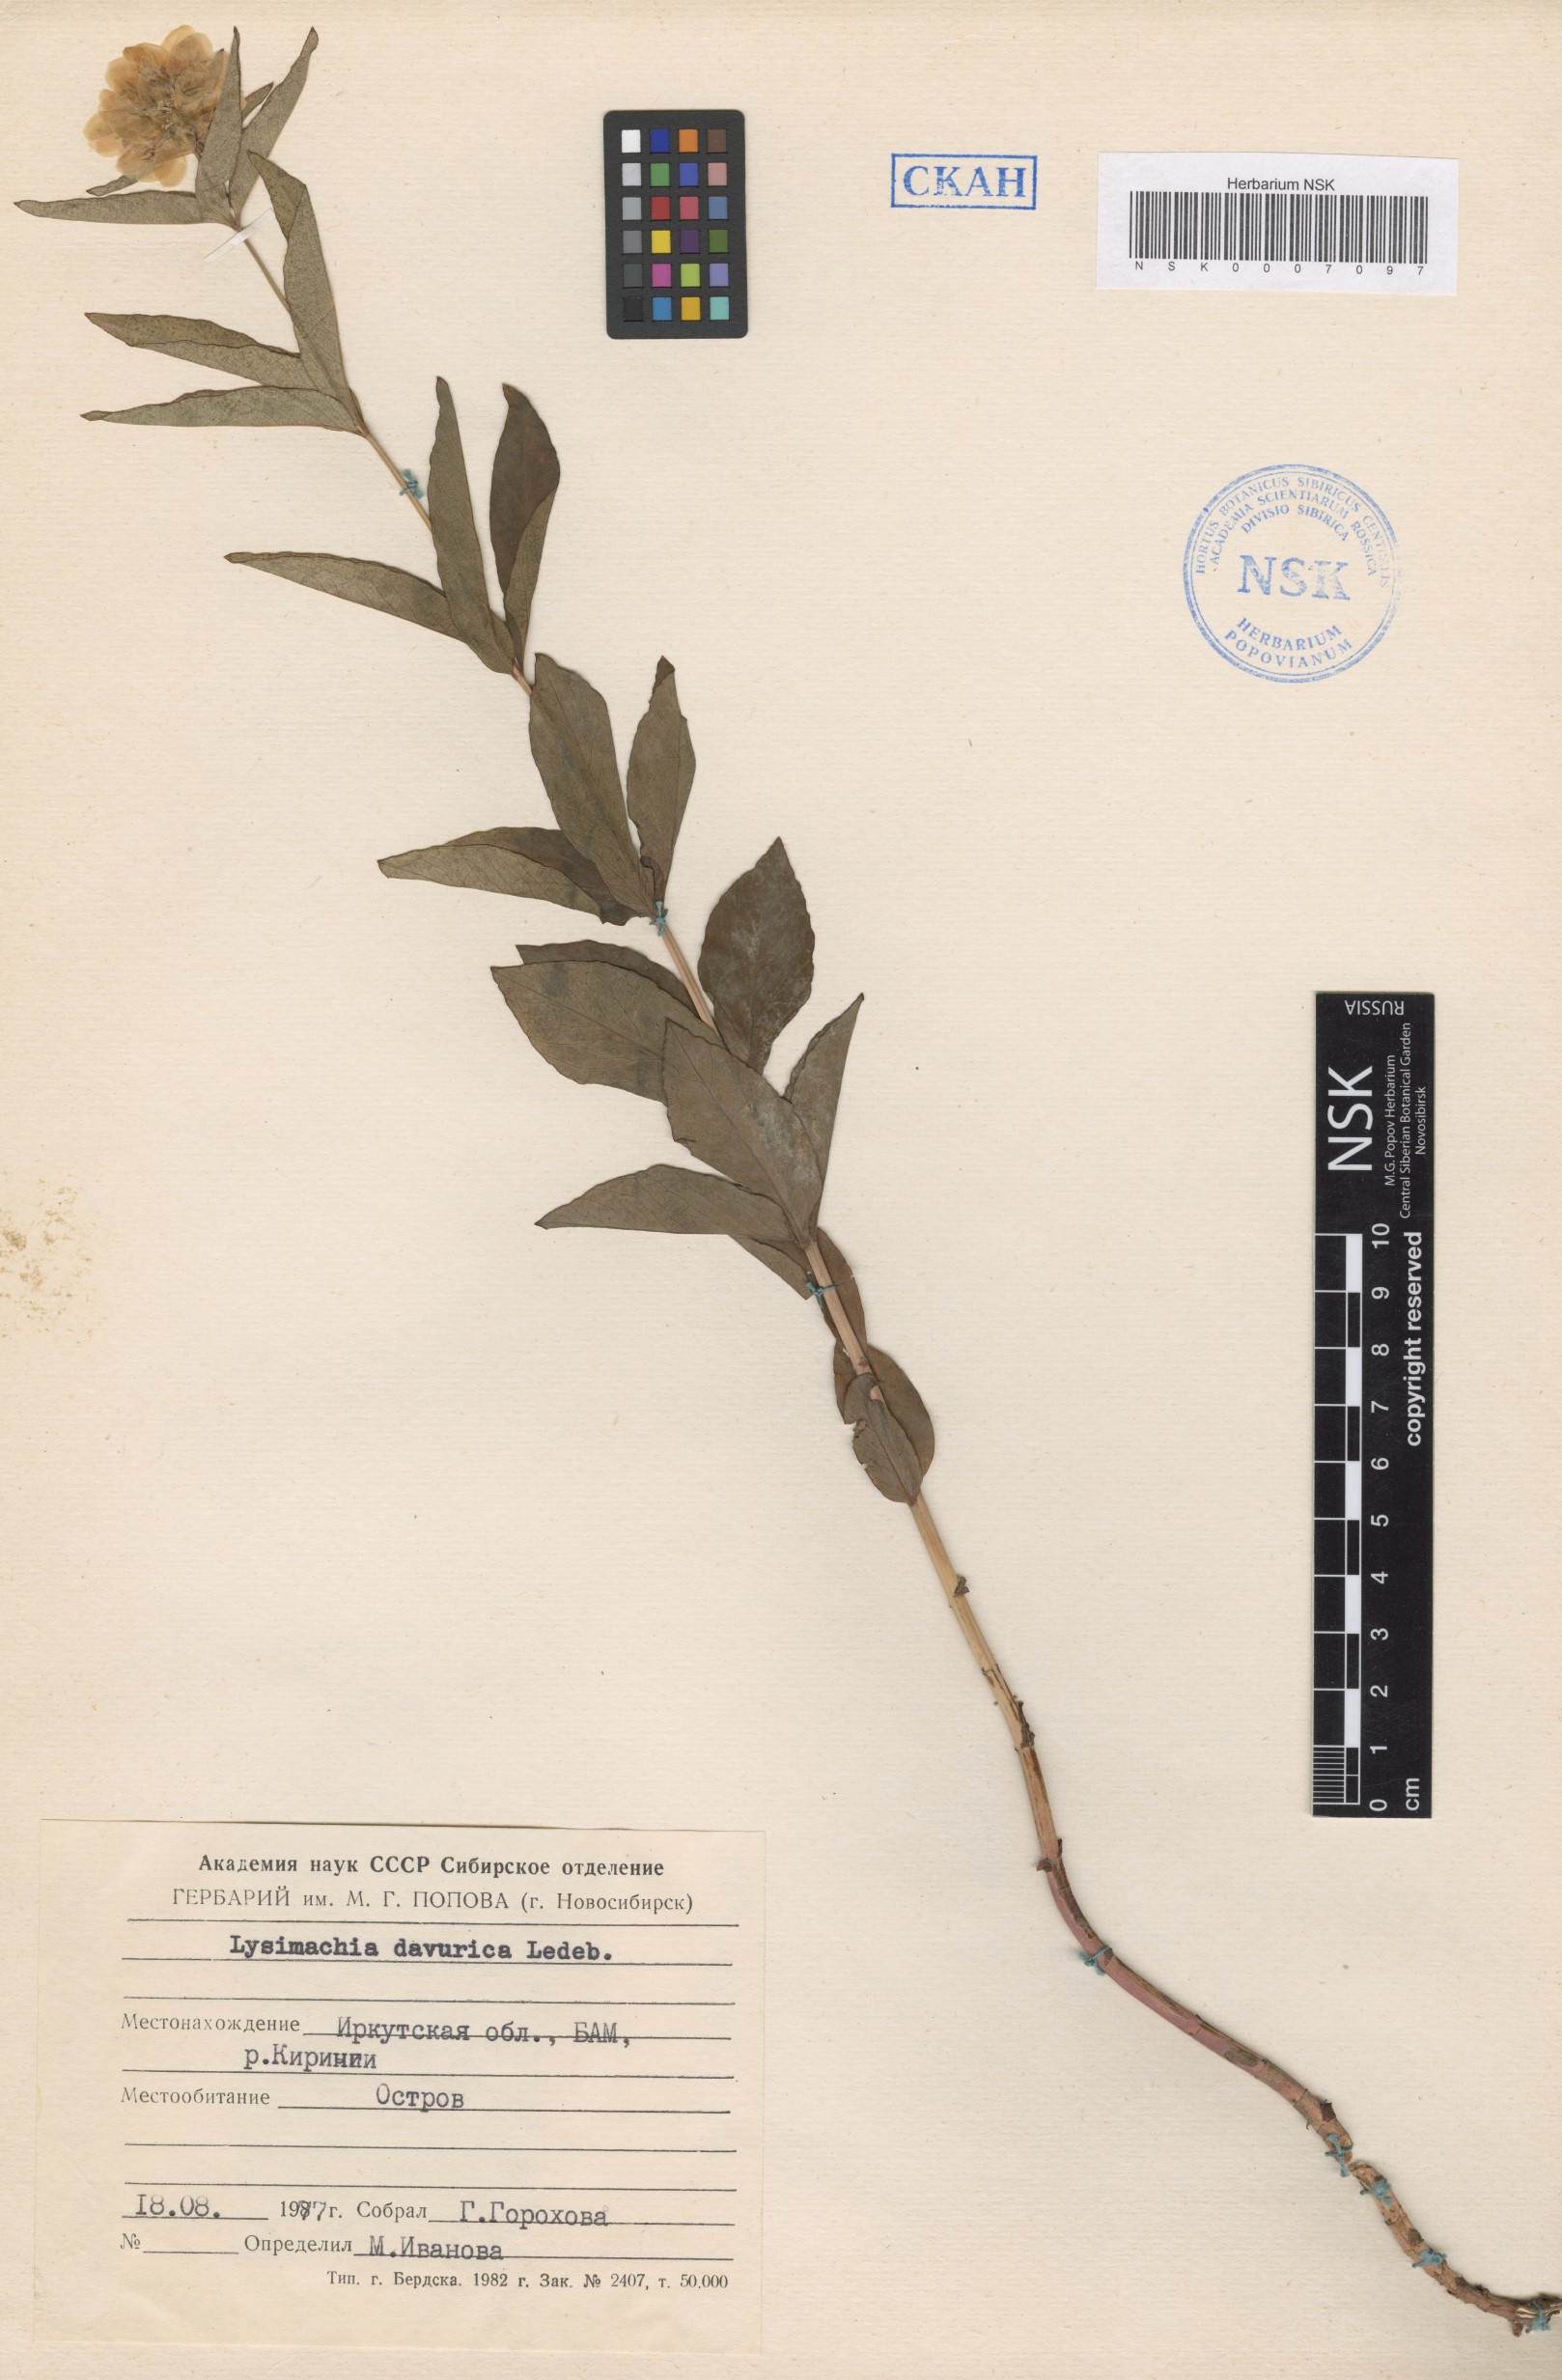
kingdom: Plantae
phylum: Tracheophyta
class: Magnoliopsida
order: Ericales
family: Primulaceae
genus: Lysimachia
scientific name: Lysimachia davurica
